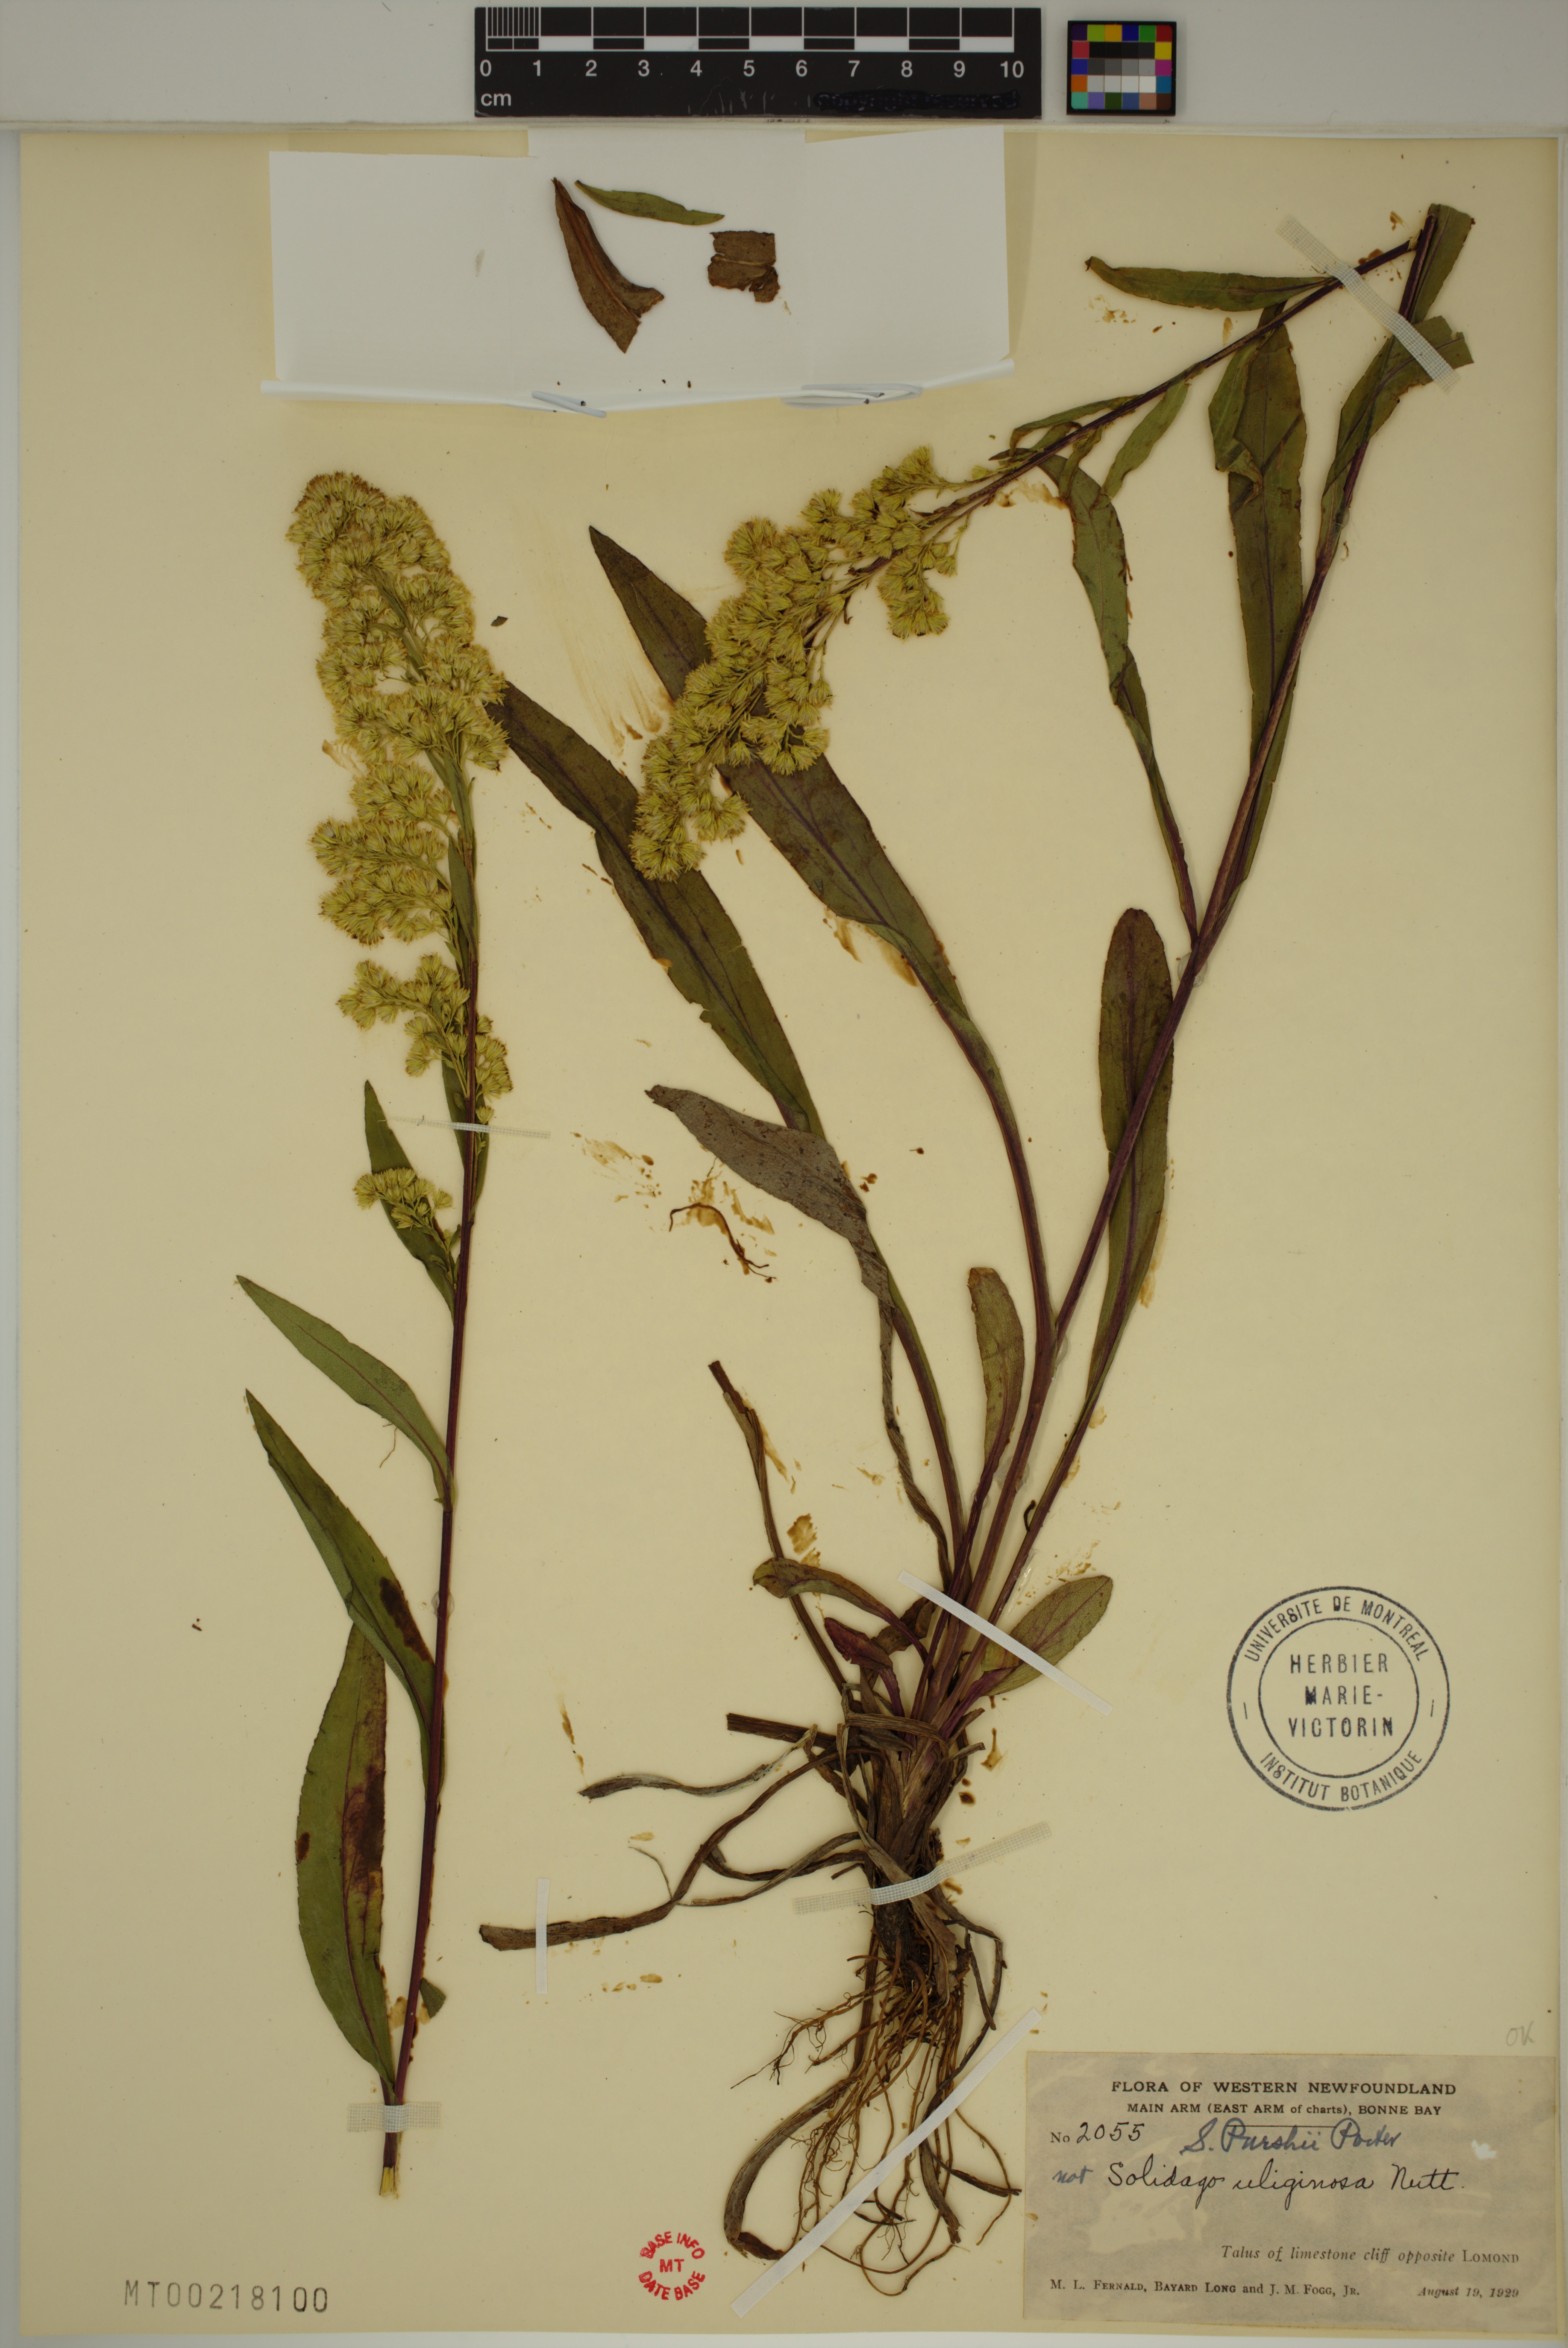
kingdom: Plantae
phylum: Tracheophyta
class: Magnoliopsida
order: Asterales
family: Asteraceae
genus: Solidago
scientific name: Solidago uliginosa
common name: Bog goldenrod
